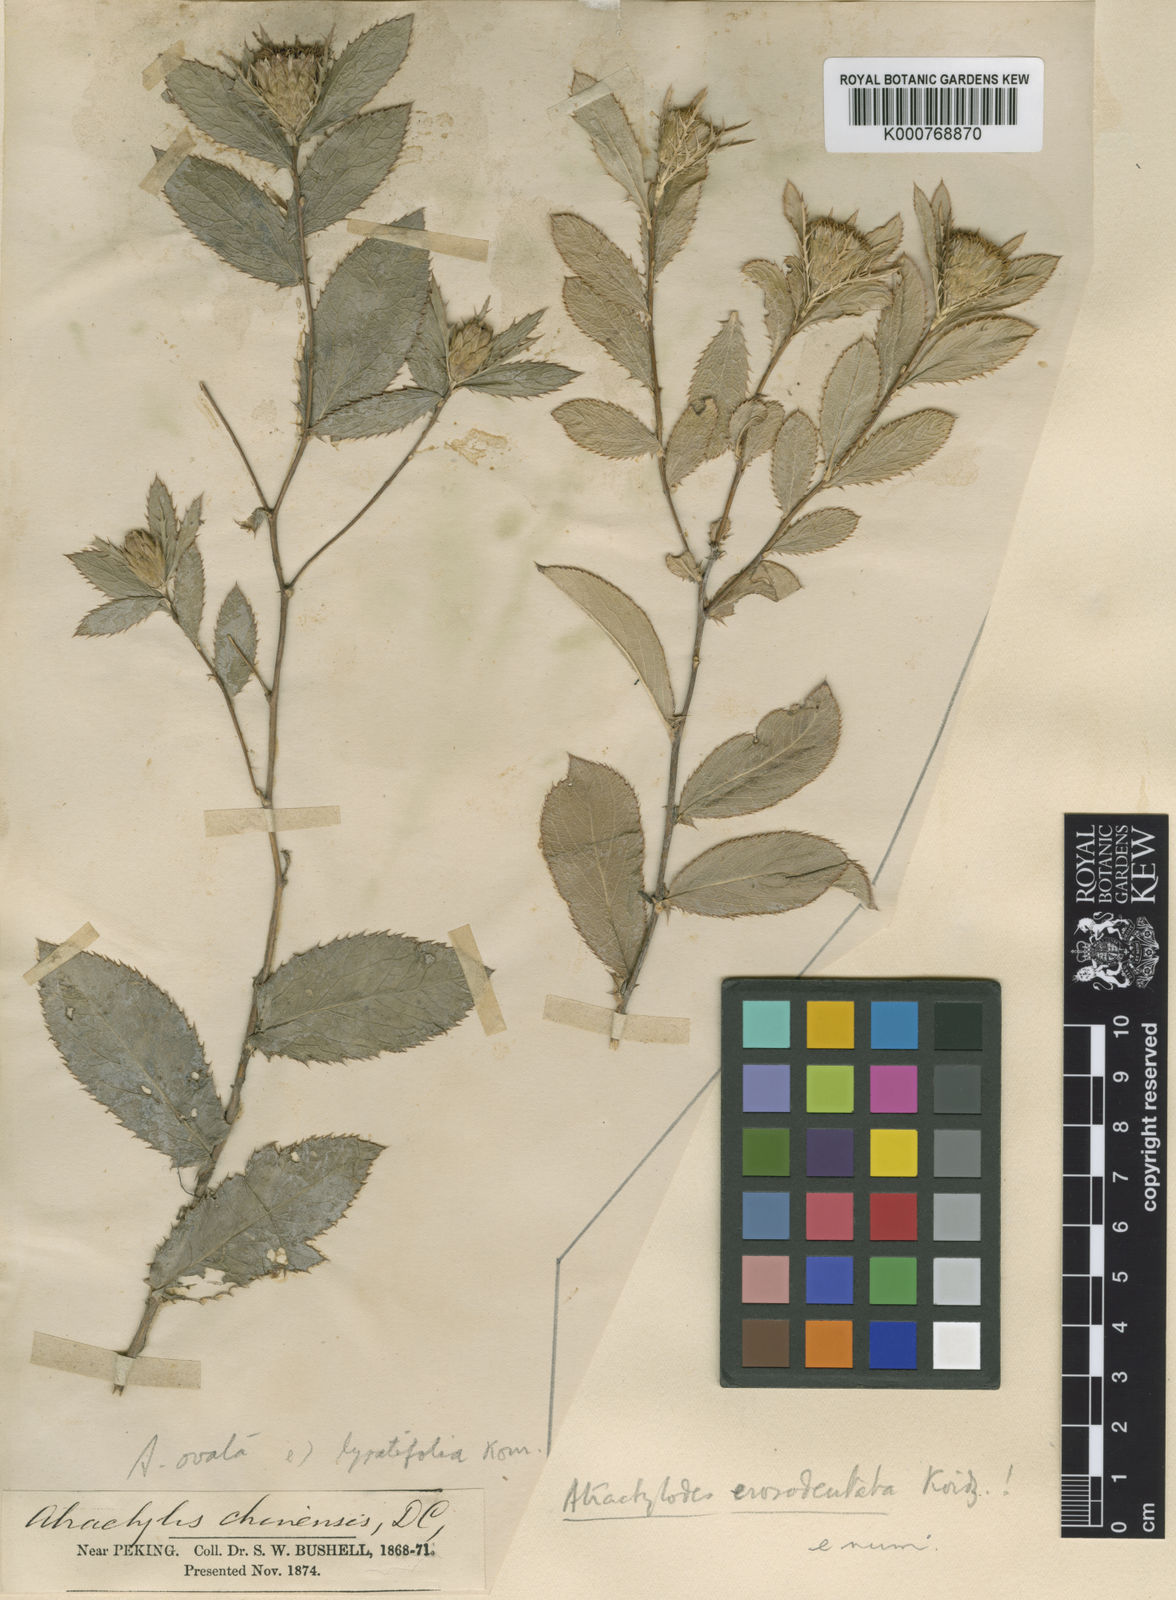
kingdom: Plantae
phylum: Tracheophyta
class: Magnoliopsida
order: Asterales
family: Asteraceae
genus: Atractylis
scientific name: Atractylis
